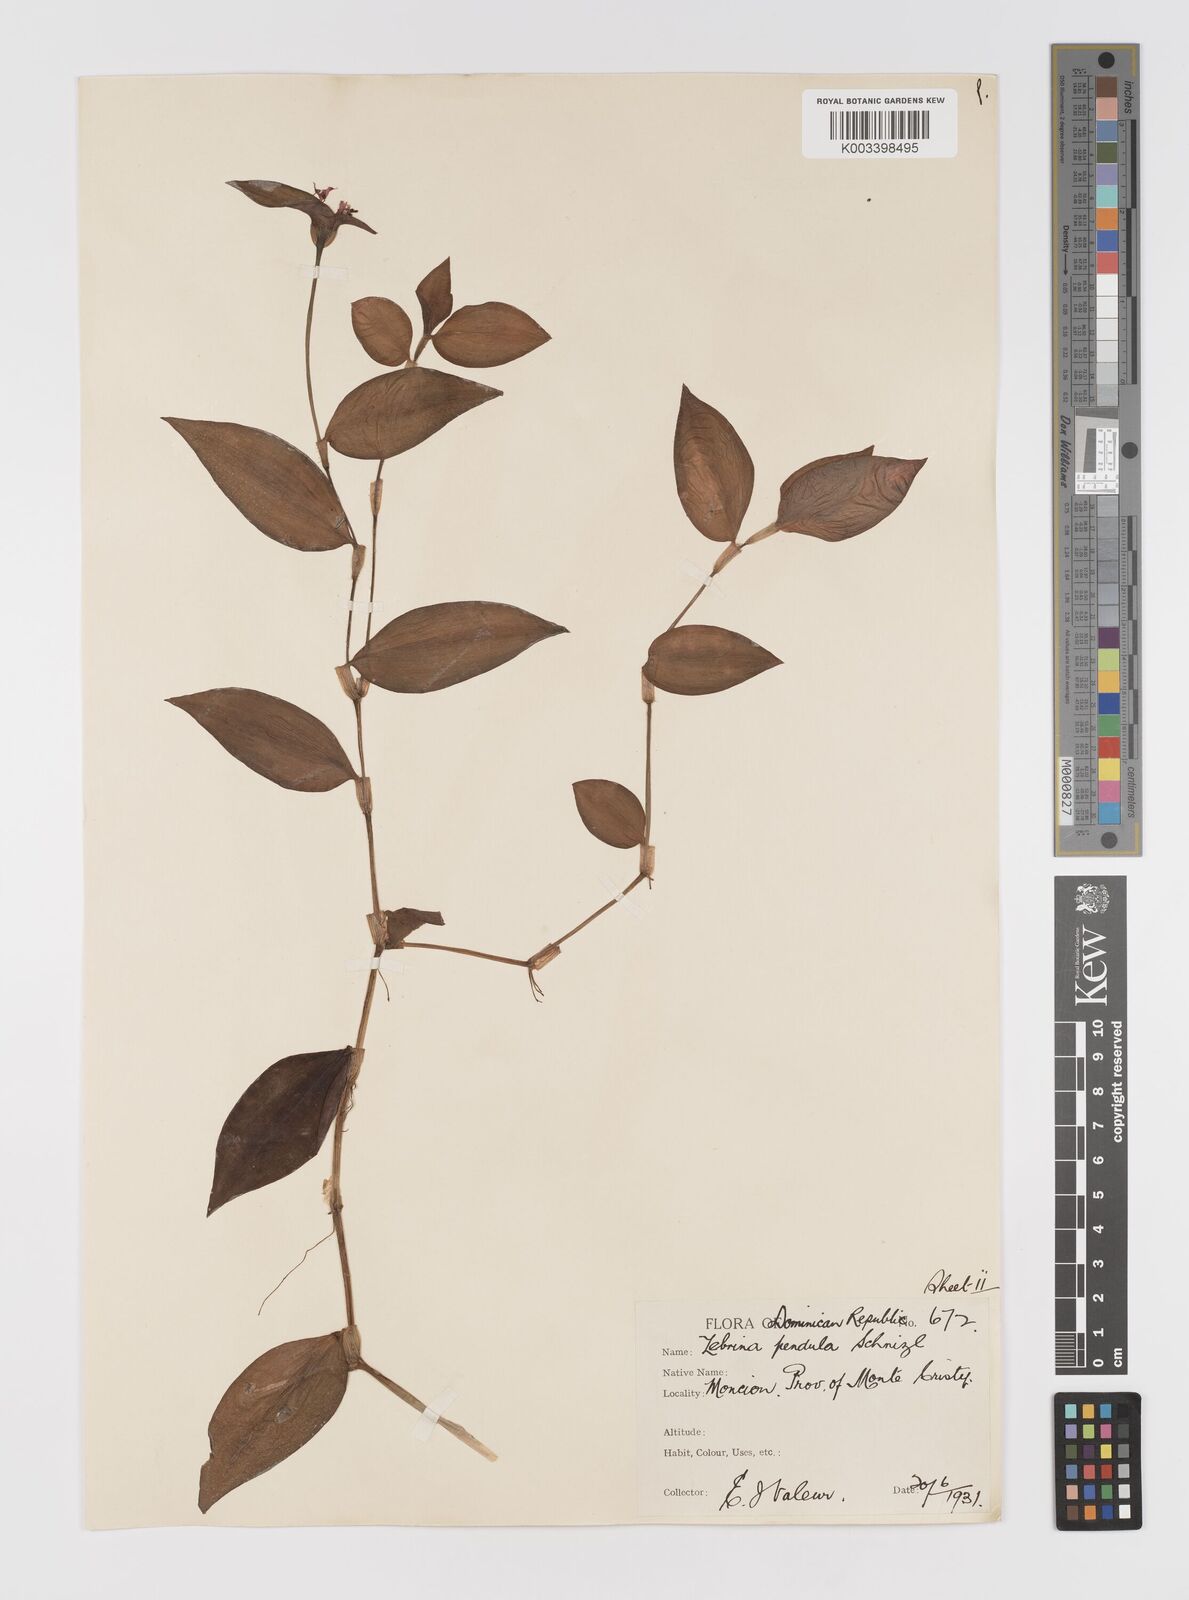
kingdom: Plantae
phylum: Tracheophyta
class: Liliopsida
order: Commelinales
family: Commelinaceae
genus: Tradescantia
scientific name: Tradescantia zebrina
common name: Inchplant
